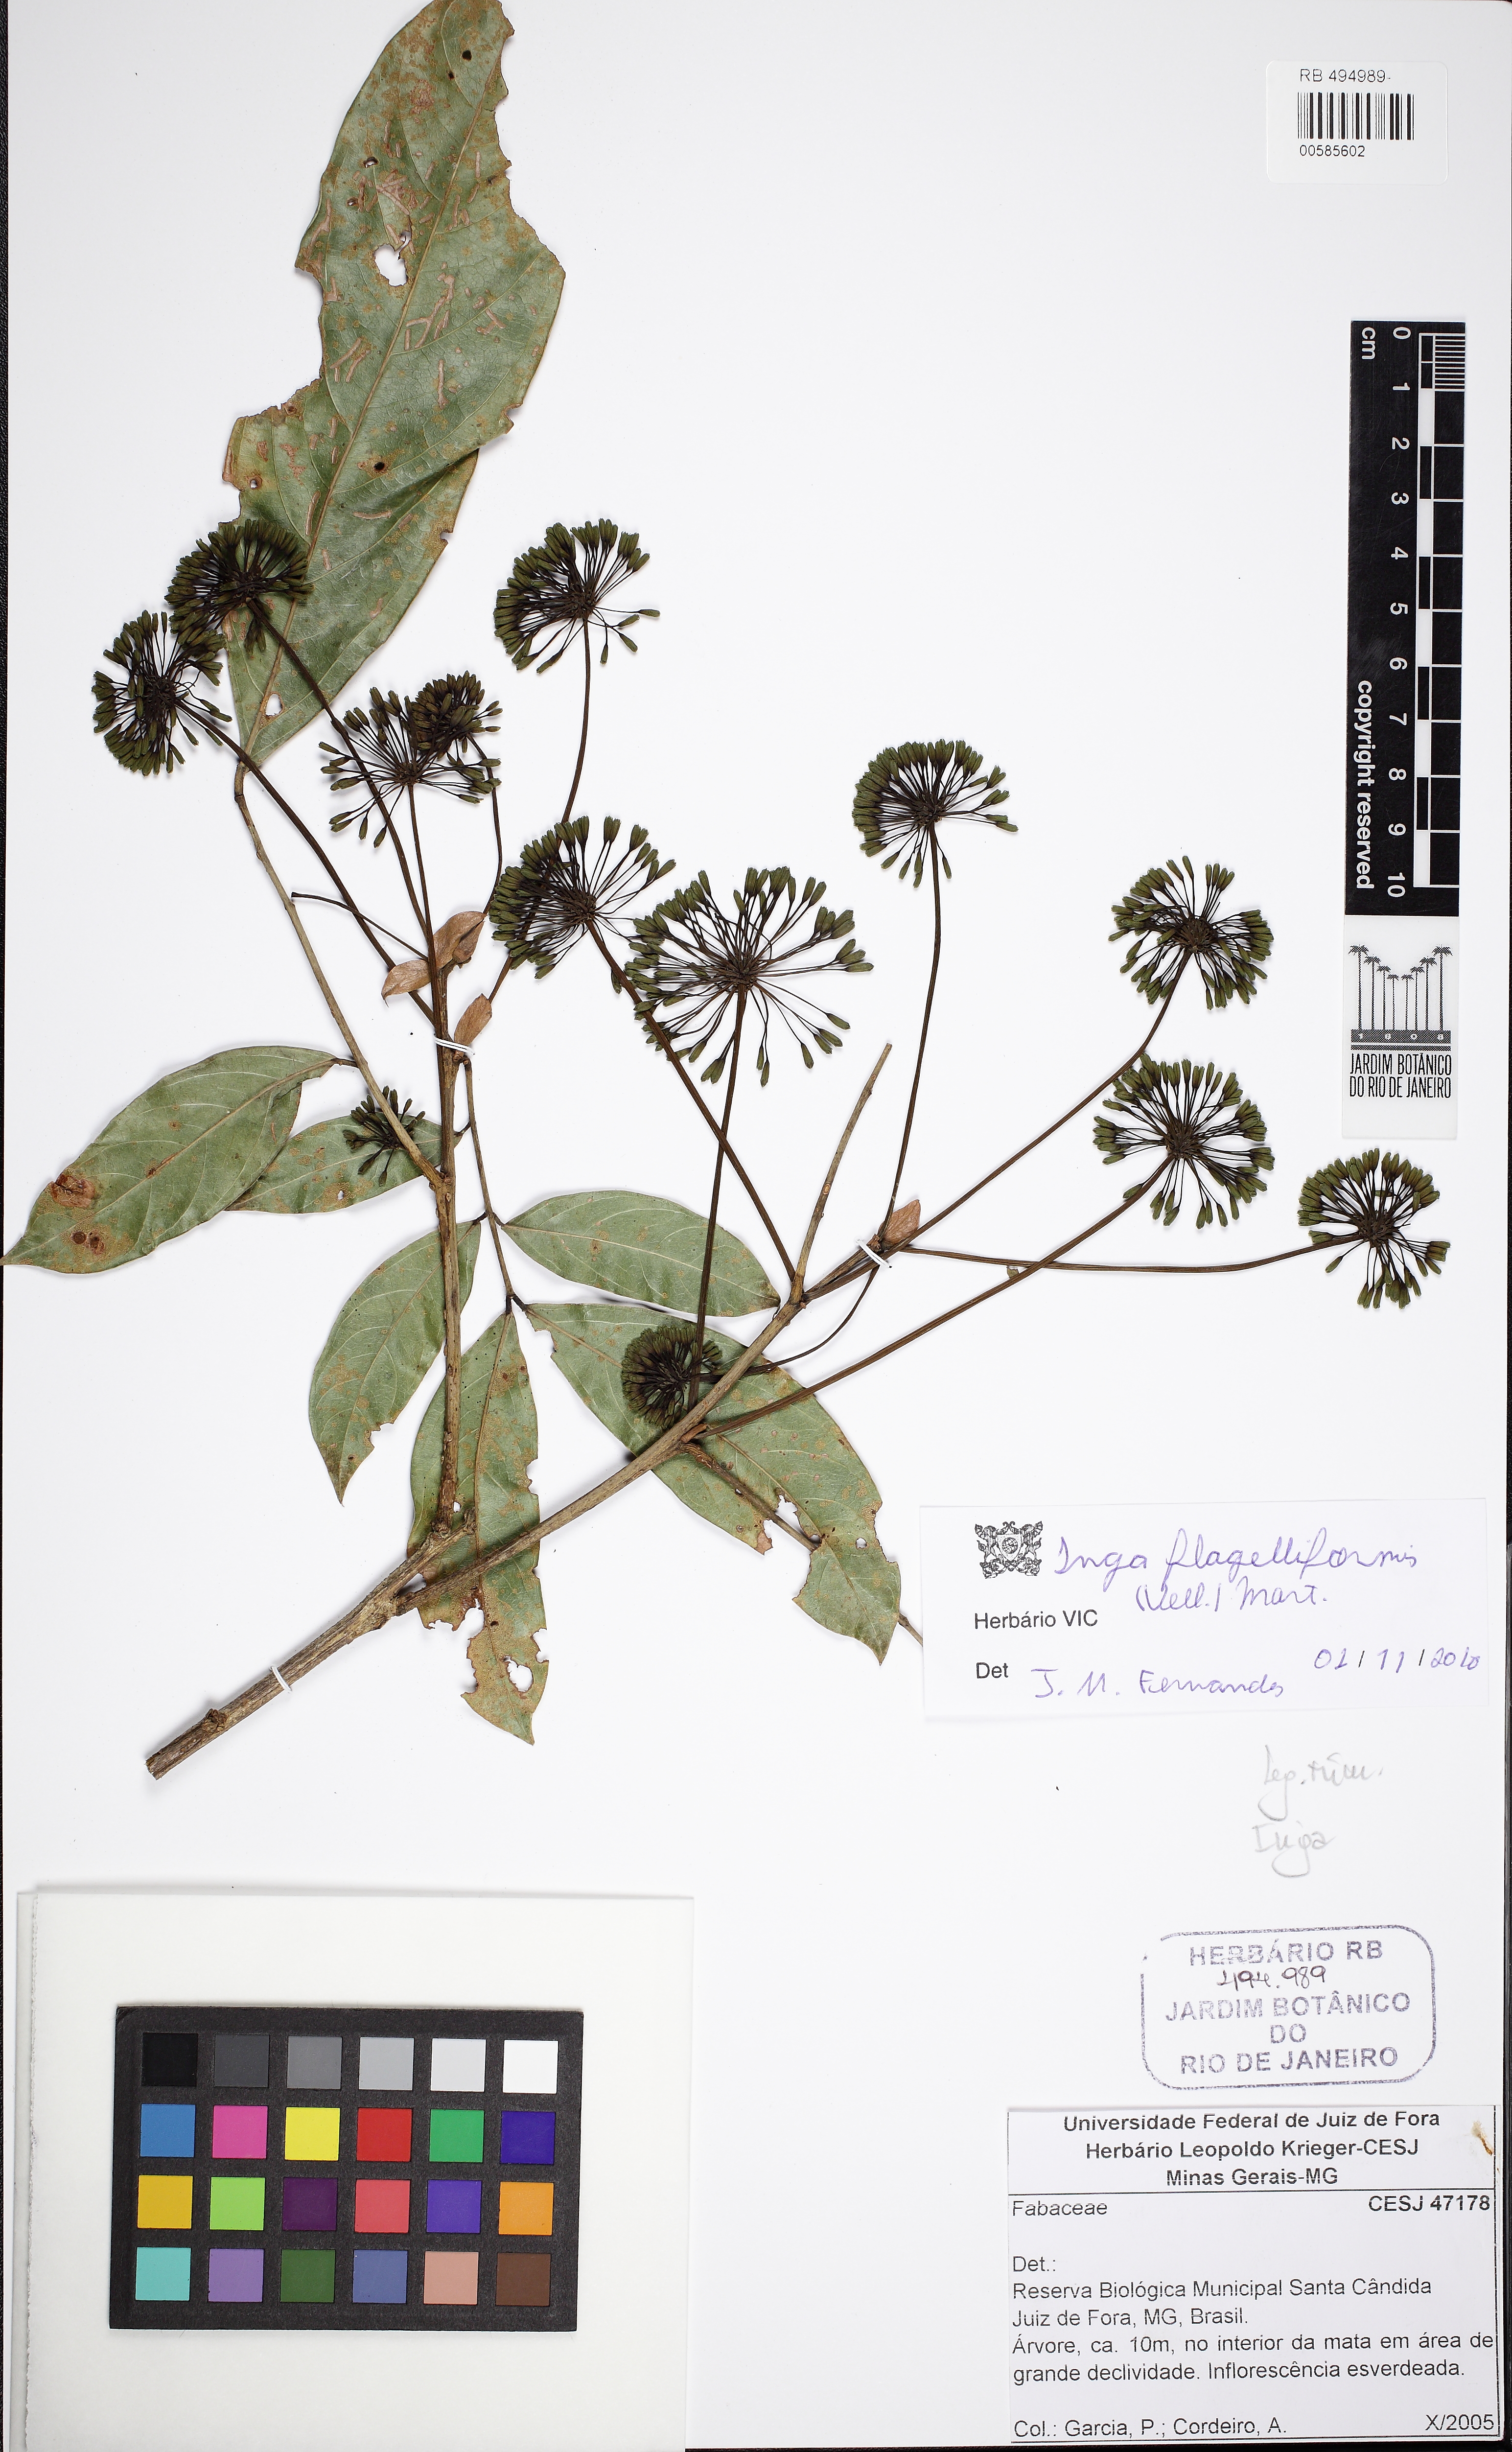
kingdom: Plantae
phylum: Tracheophyta
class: Magnoliopsida
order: Fabales
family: Fabaceae
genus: Inga
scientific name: Inga flagelliformis
